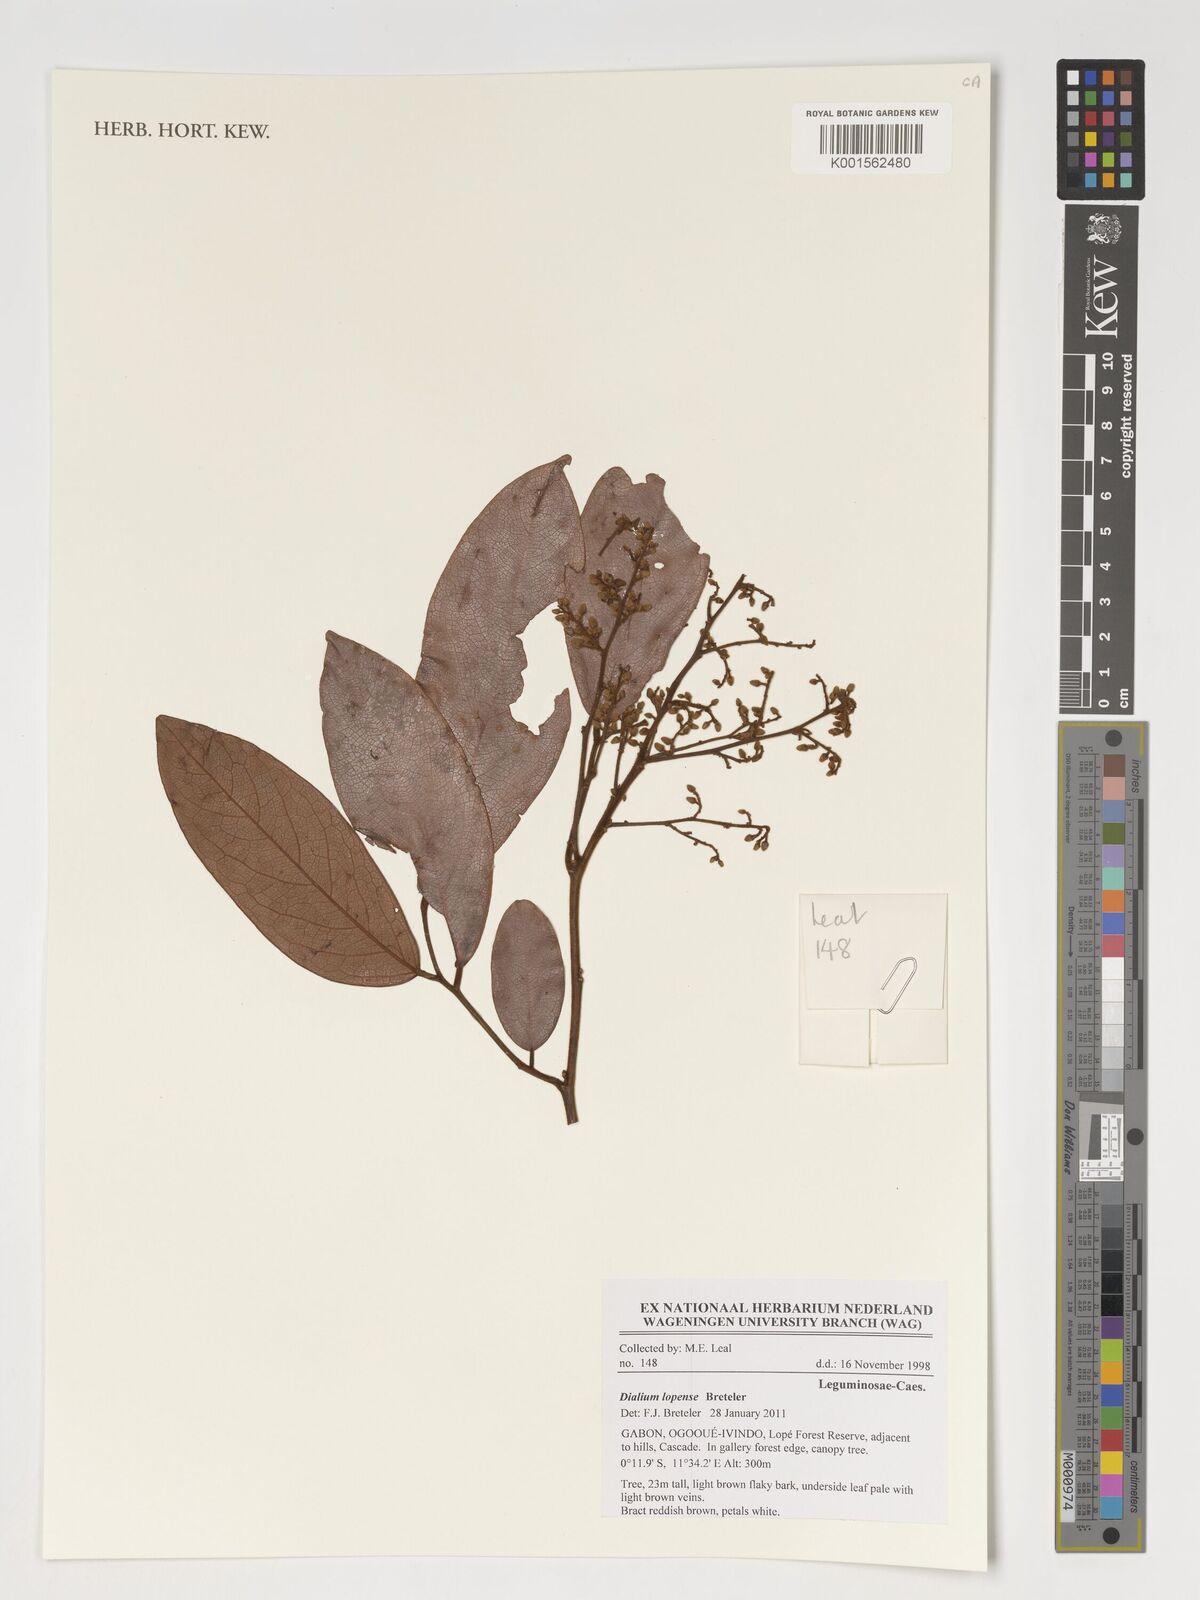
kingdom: Plantae
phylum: Tracheophyta
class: Magnoliopsida
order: Fabales
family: Fabaceae
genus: Dialium
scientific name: Dialium lopense
